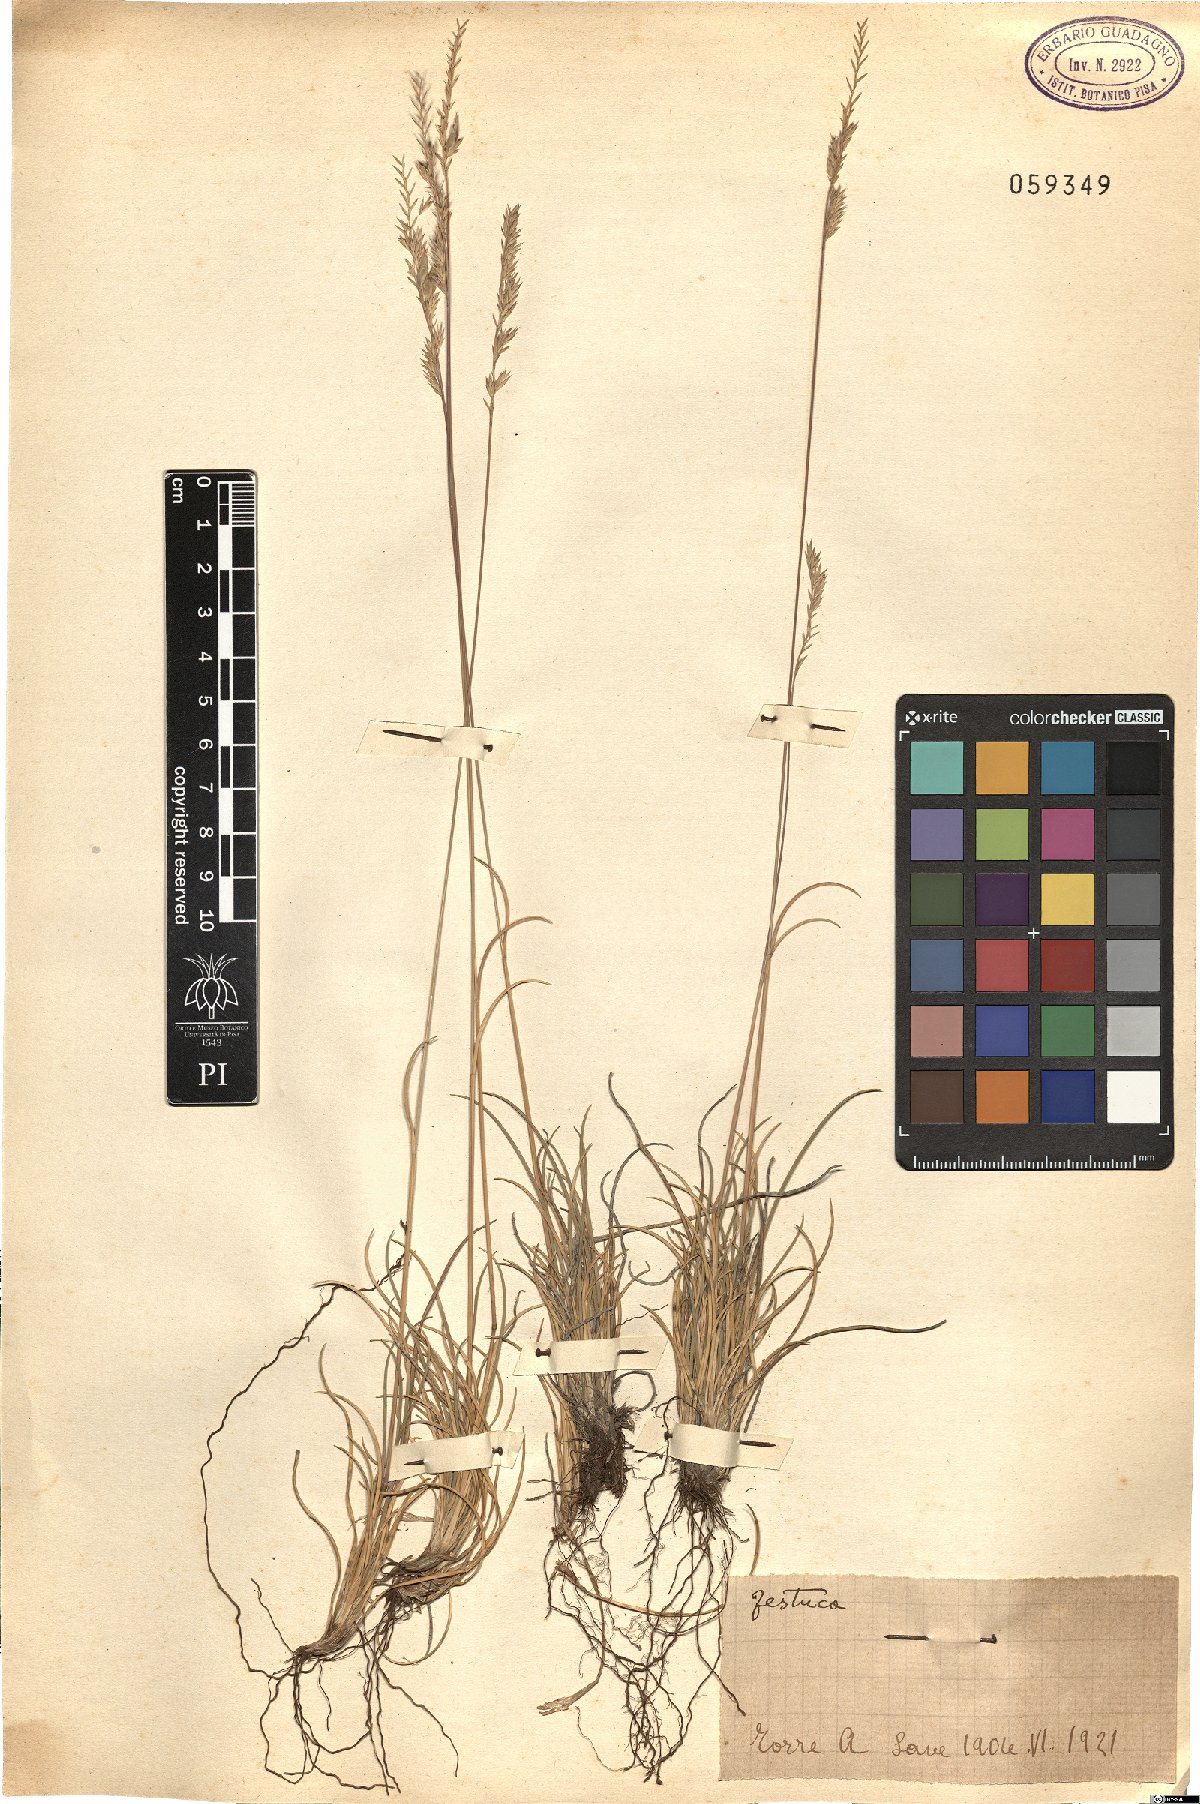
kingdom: Plantae
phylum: Tracheophyta
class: Liliopsida
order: Poales
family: Poaceae
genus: Festuca
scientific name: Festuca
